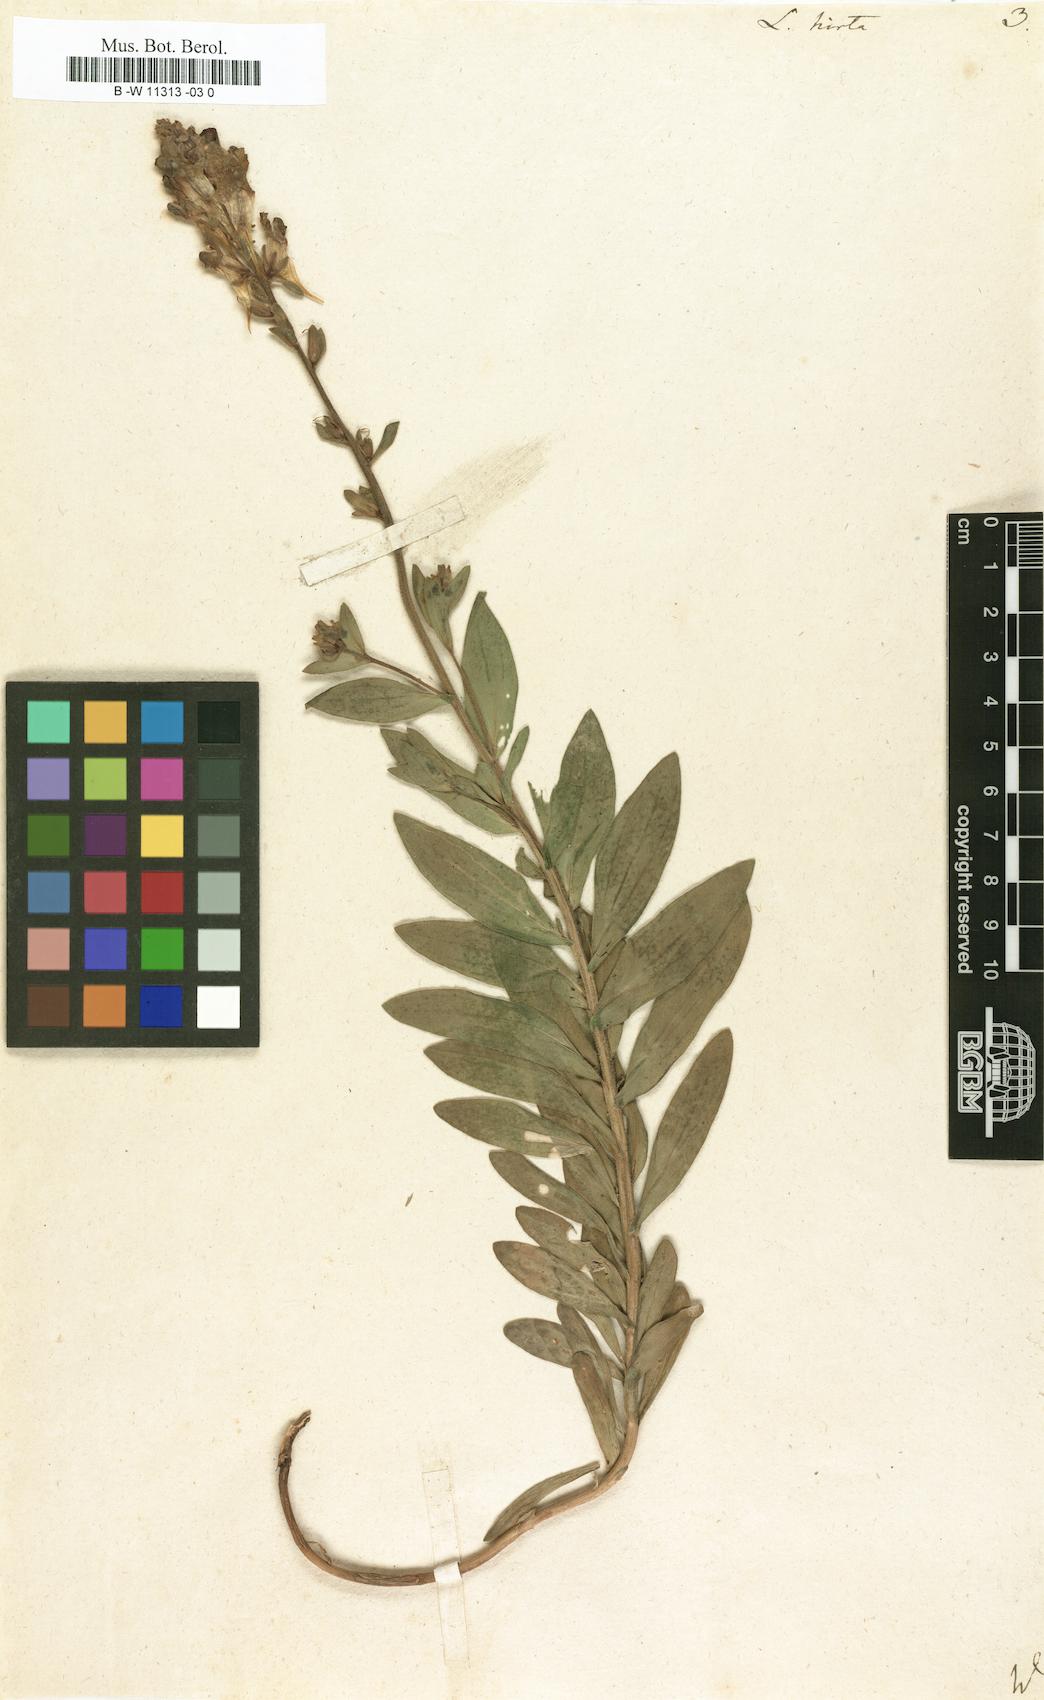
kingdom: Plantae
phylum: Tracheophyta
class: Magnoliopsida
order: Lamiales
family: Plantaginaceae
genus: Linaria
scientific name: Linaria hirta
